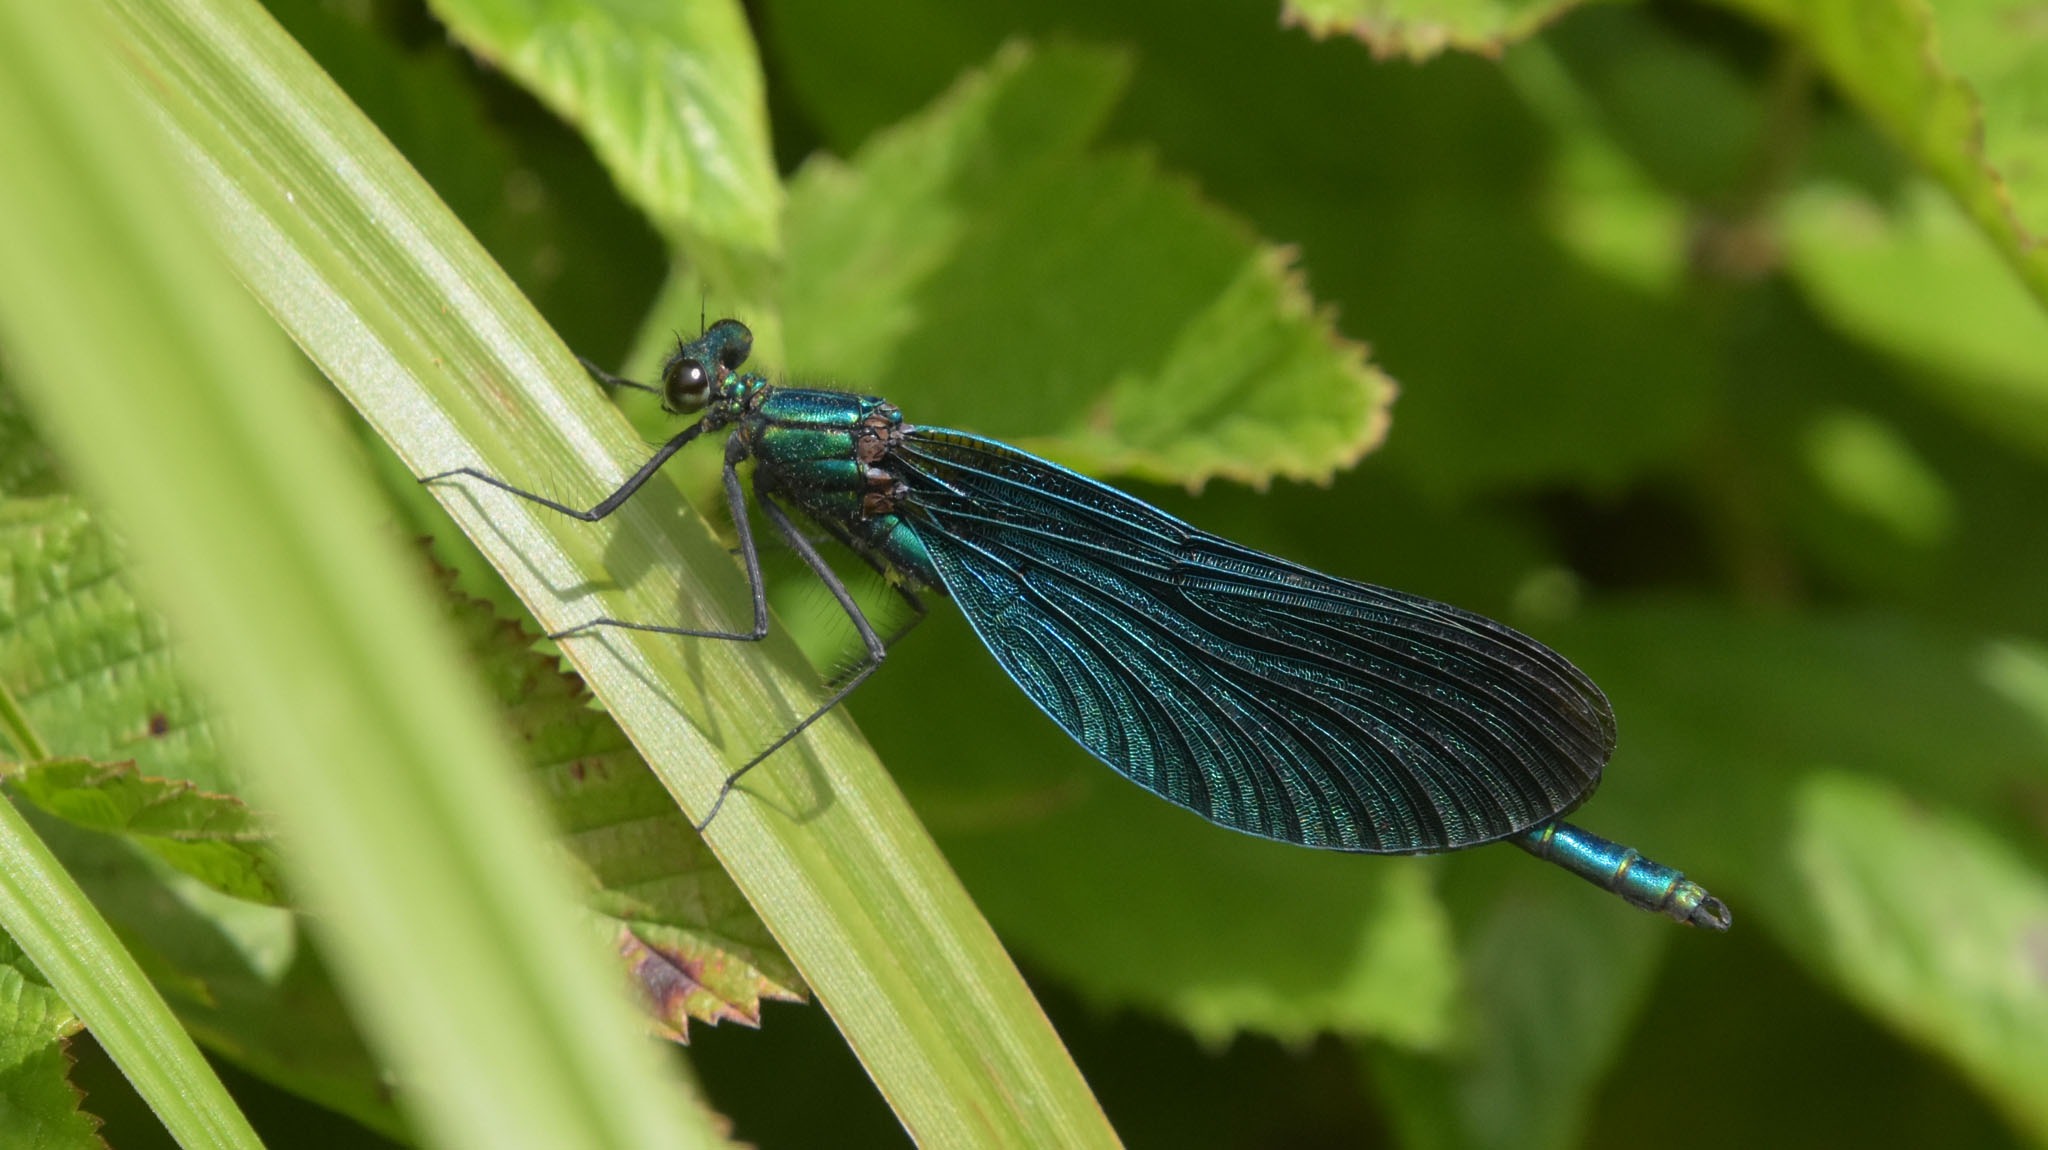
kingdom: Animalia
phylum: Arthropoda
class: Insecta
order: Odonata
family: Calopterygidae
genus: Calopteryx
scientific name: Calopteryx virgo
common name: Blåvinget pragtvandnymfe
